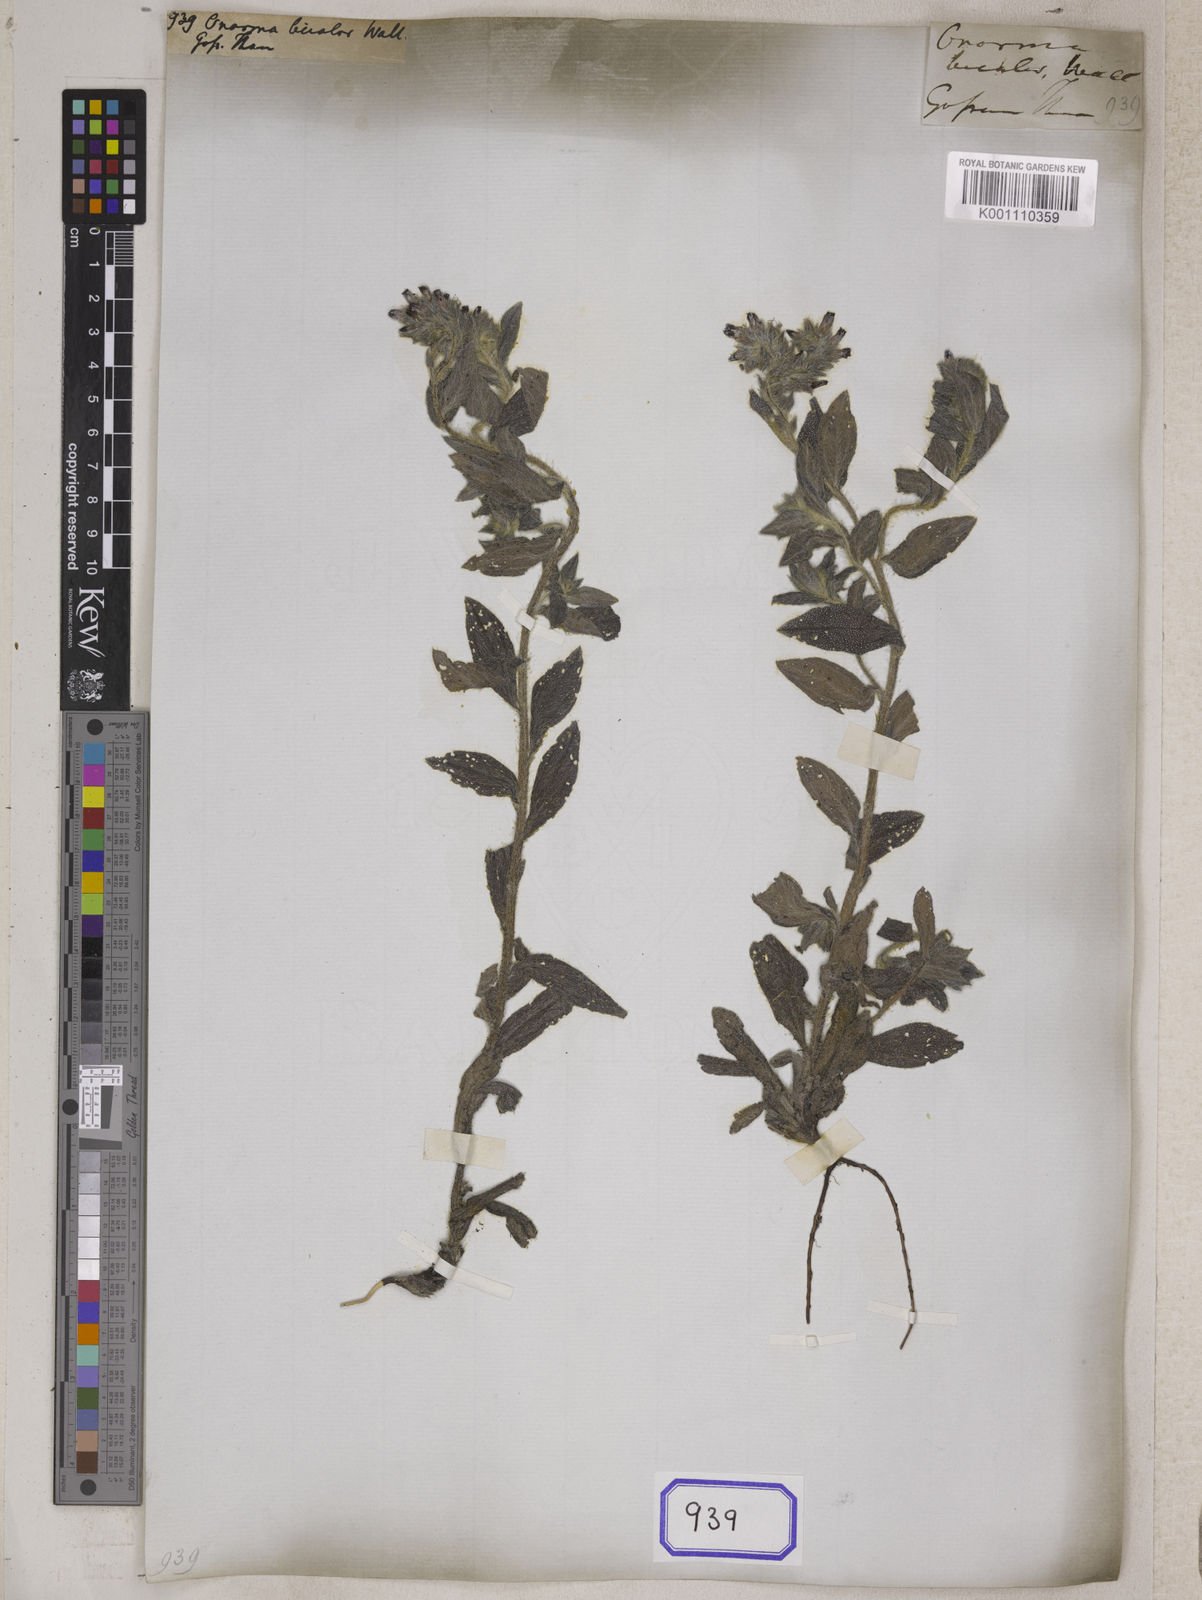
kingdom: Plantae
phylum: Tracheophyta
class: Magnoliopsida
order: Boraginales
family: Boraginaceae
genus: Onosma
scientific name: Onosma
